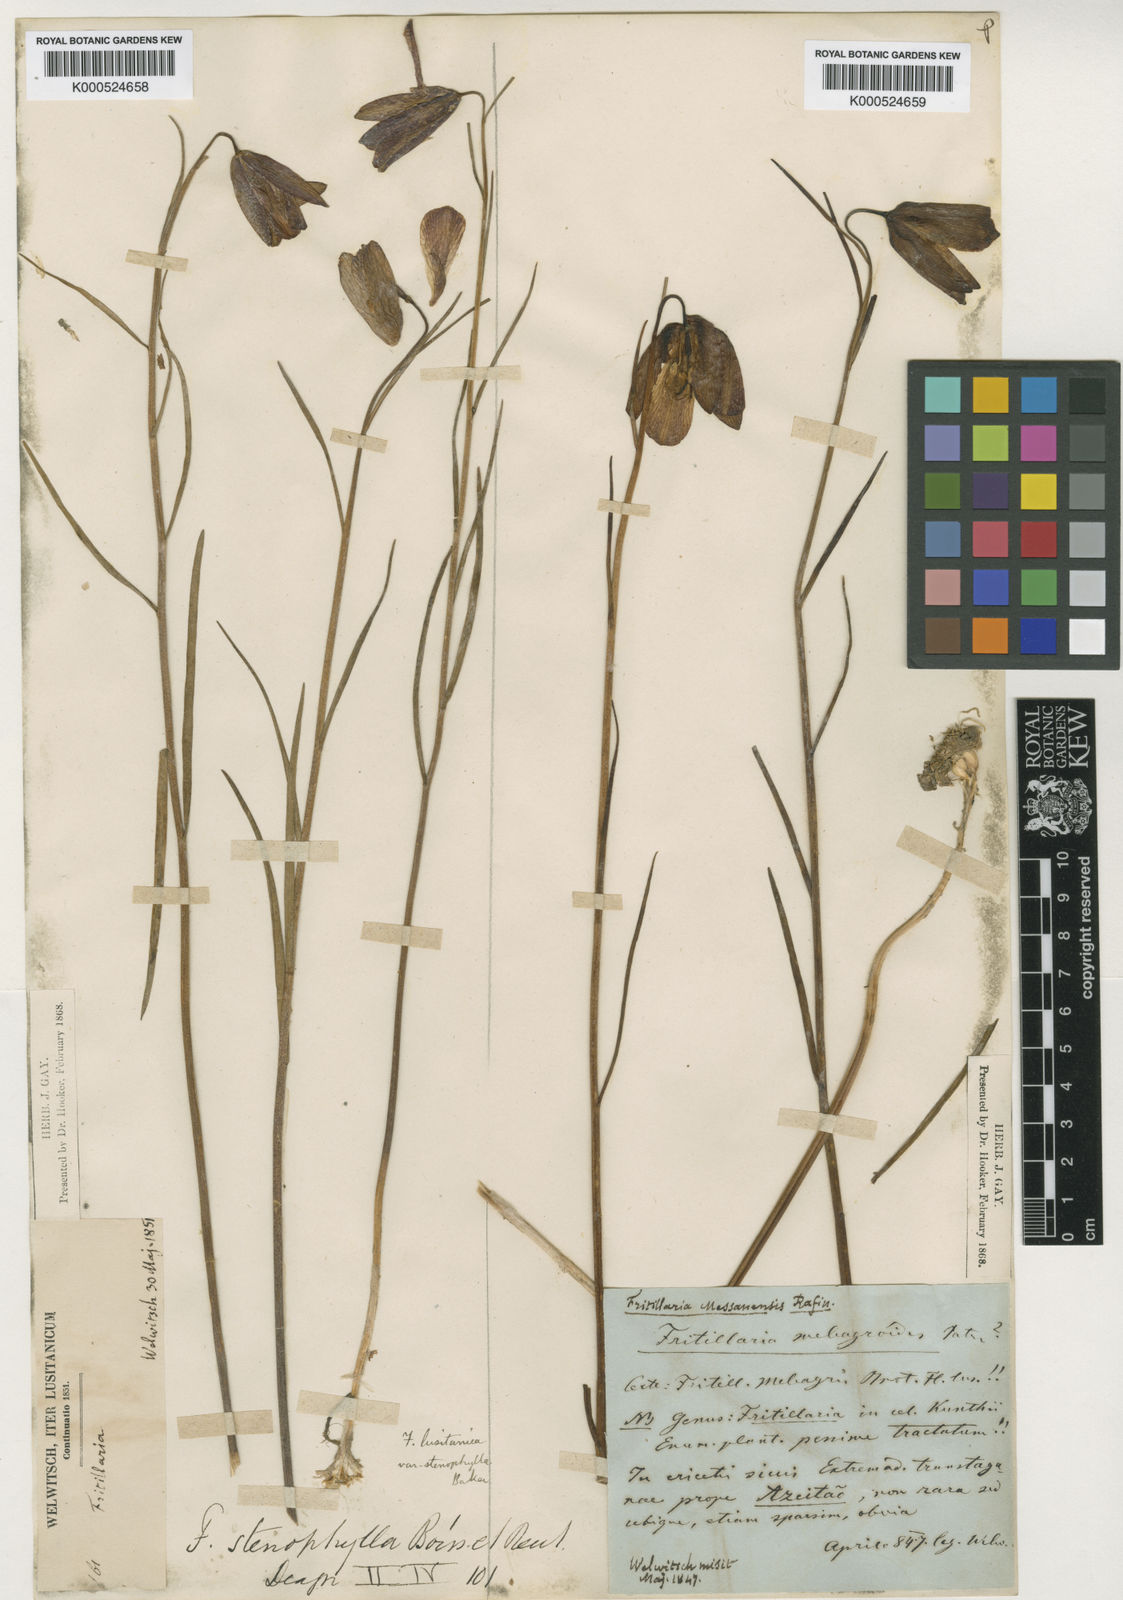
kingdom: Plantae
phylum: Tracheophyta
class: Liliopsida
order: Liliales
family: Liliaceae
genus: Fritillaria
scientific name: Fritillaria lusitanica
